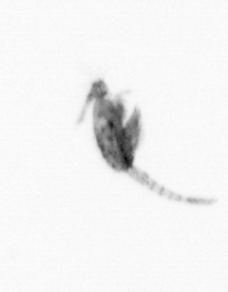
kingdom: Animalia
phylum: Arthropoda
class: Copepoda
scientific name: Copepoda
